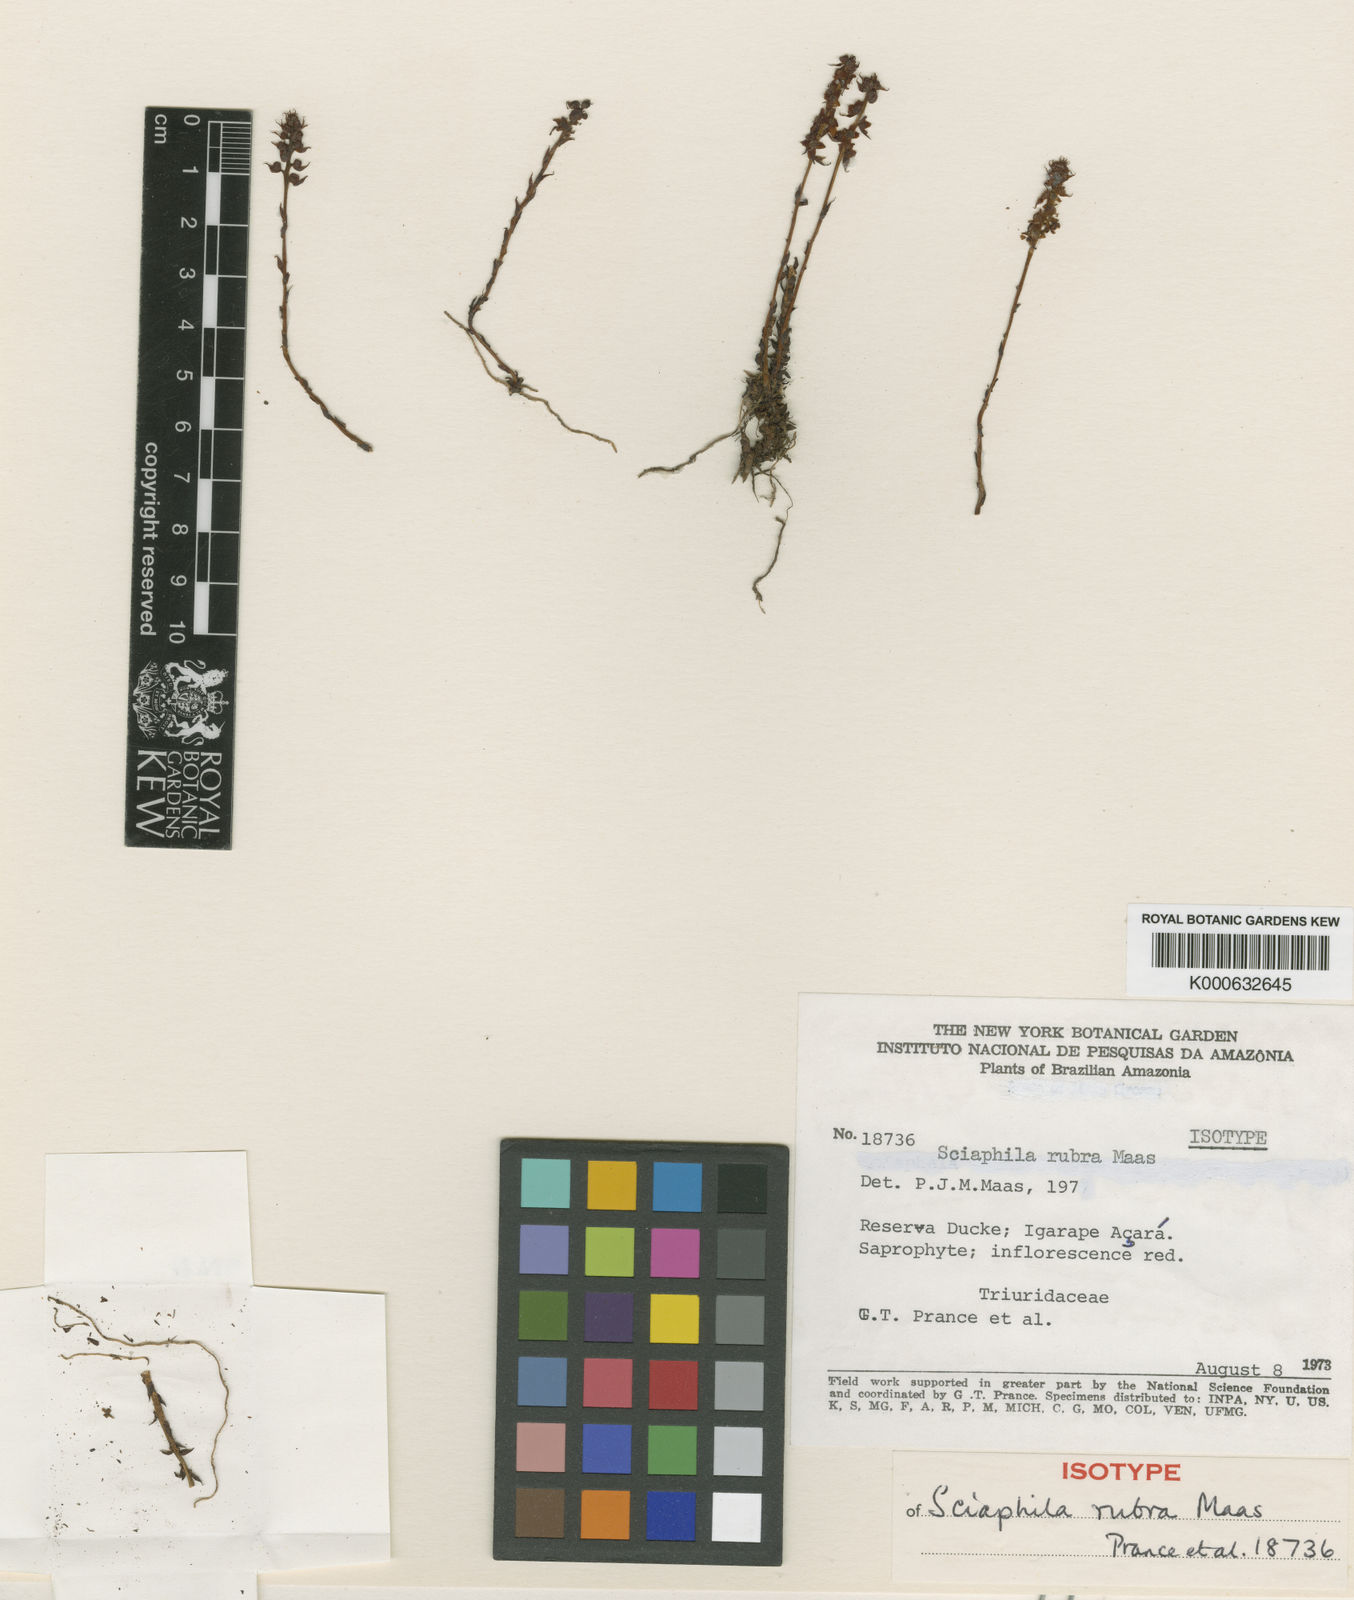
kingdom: Plantae
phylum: Tracheophyta
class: Liliopsida
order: Pandanales
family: Triuridaceae
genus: Sciaphila
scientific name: Sciaphila rubra
